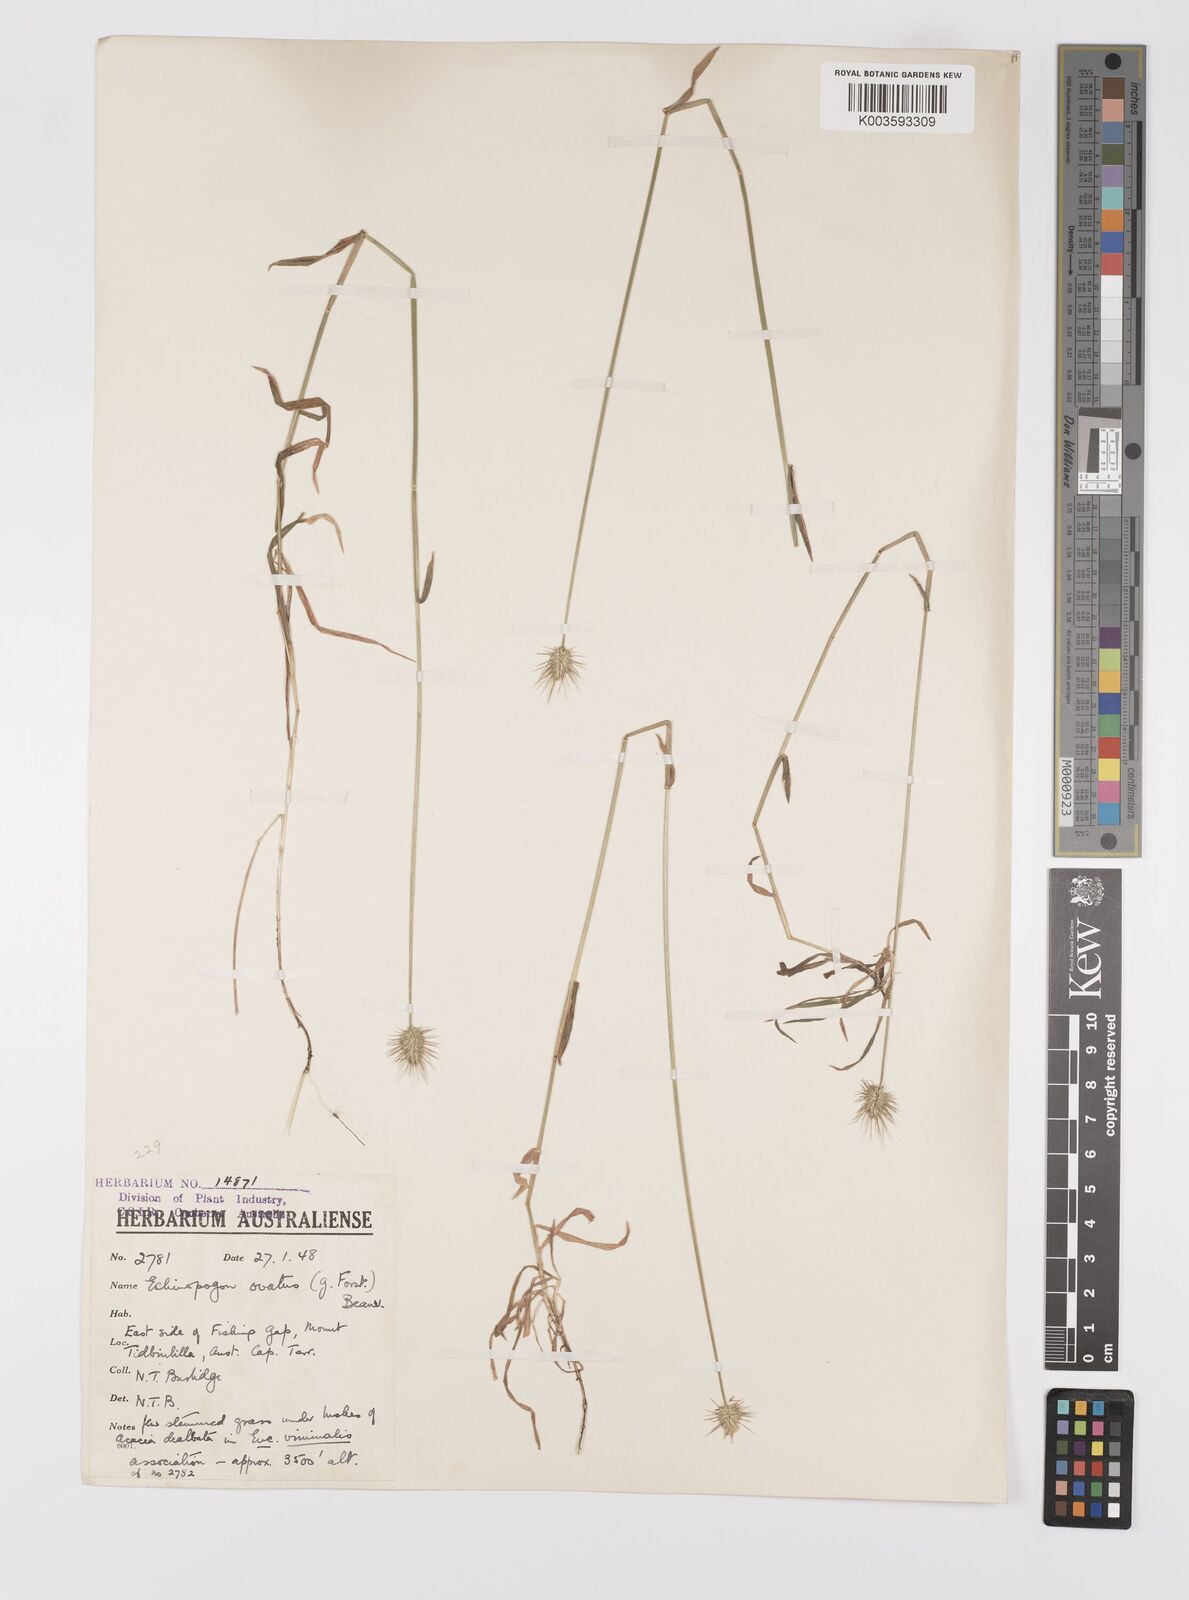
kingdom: Plantae
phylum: Tracheophyta
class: Liliopsida
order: Poales
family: Poaceae
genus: Echinopogon
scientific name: Echinopogon ovatus
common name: Hedgehog-grass
